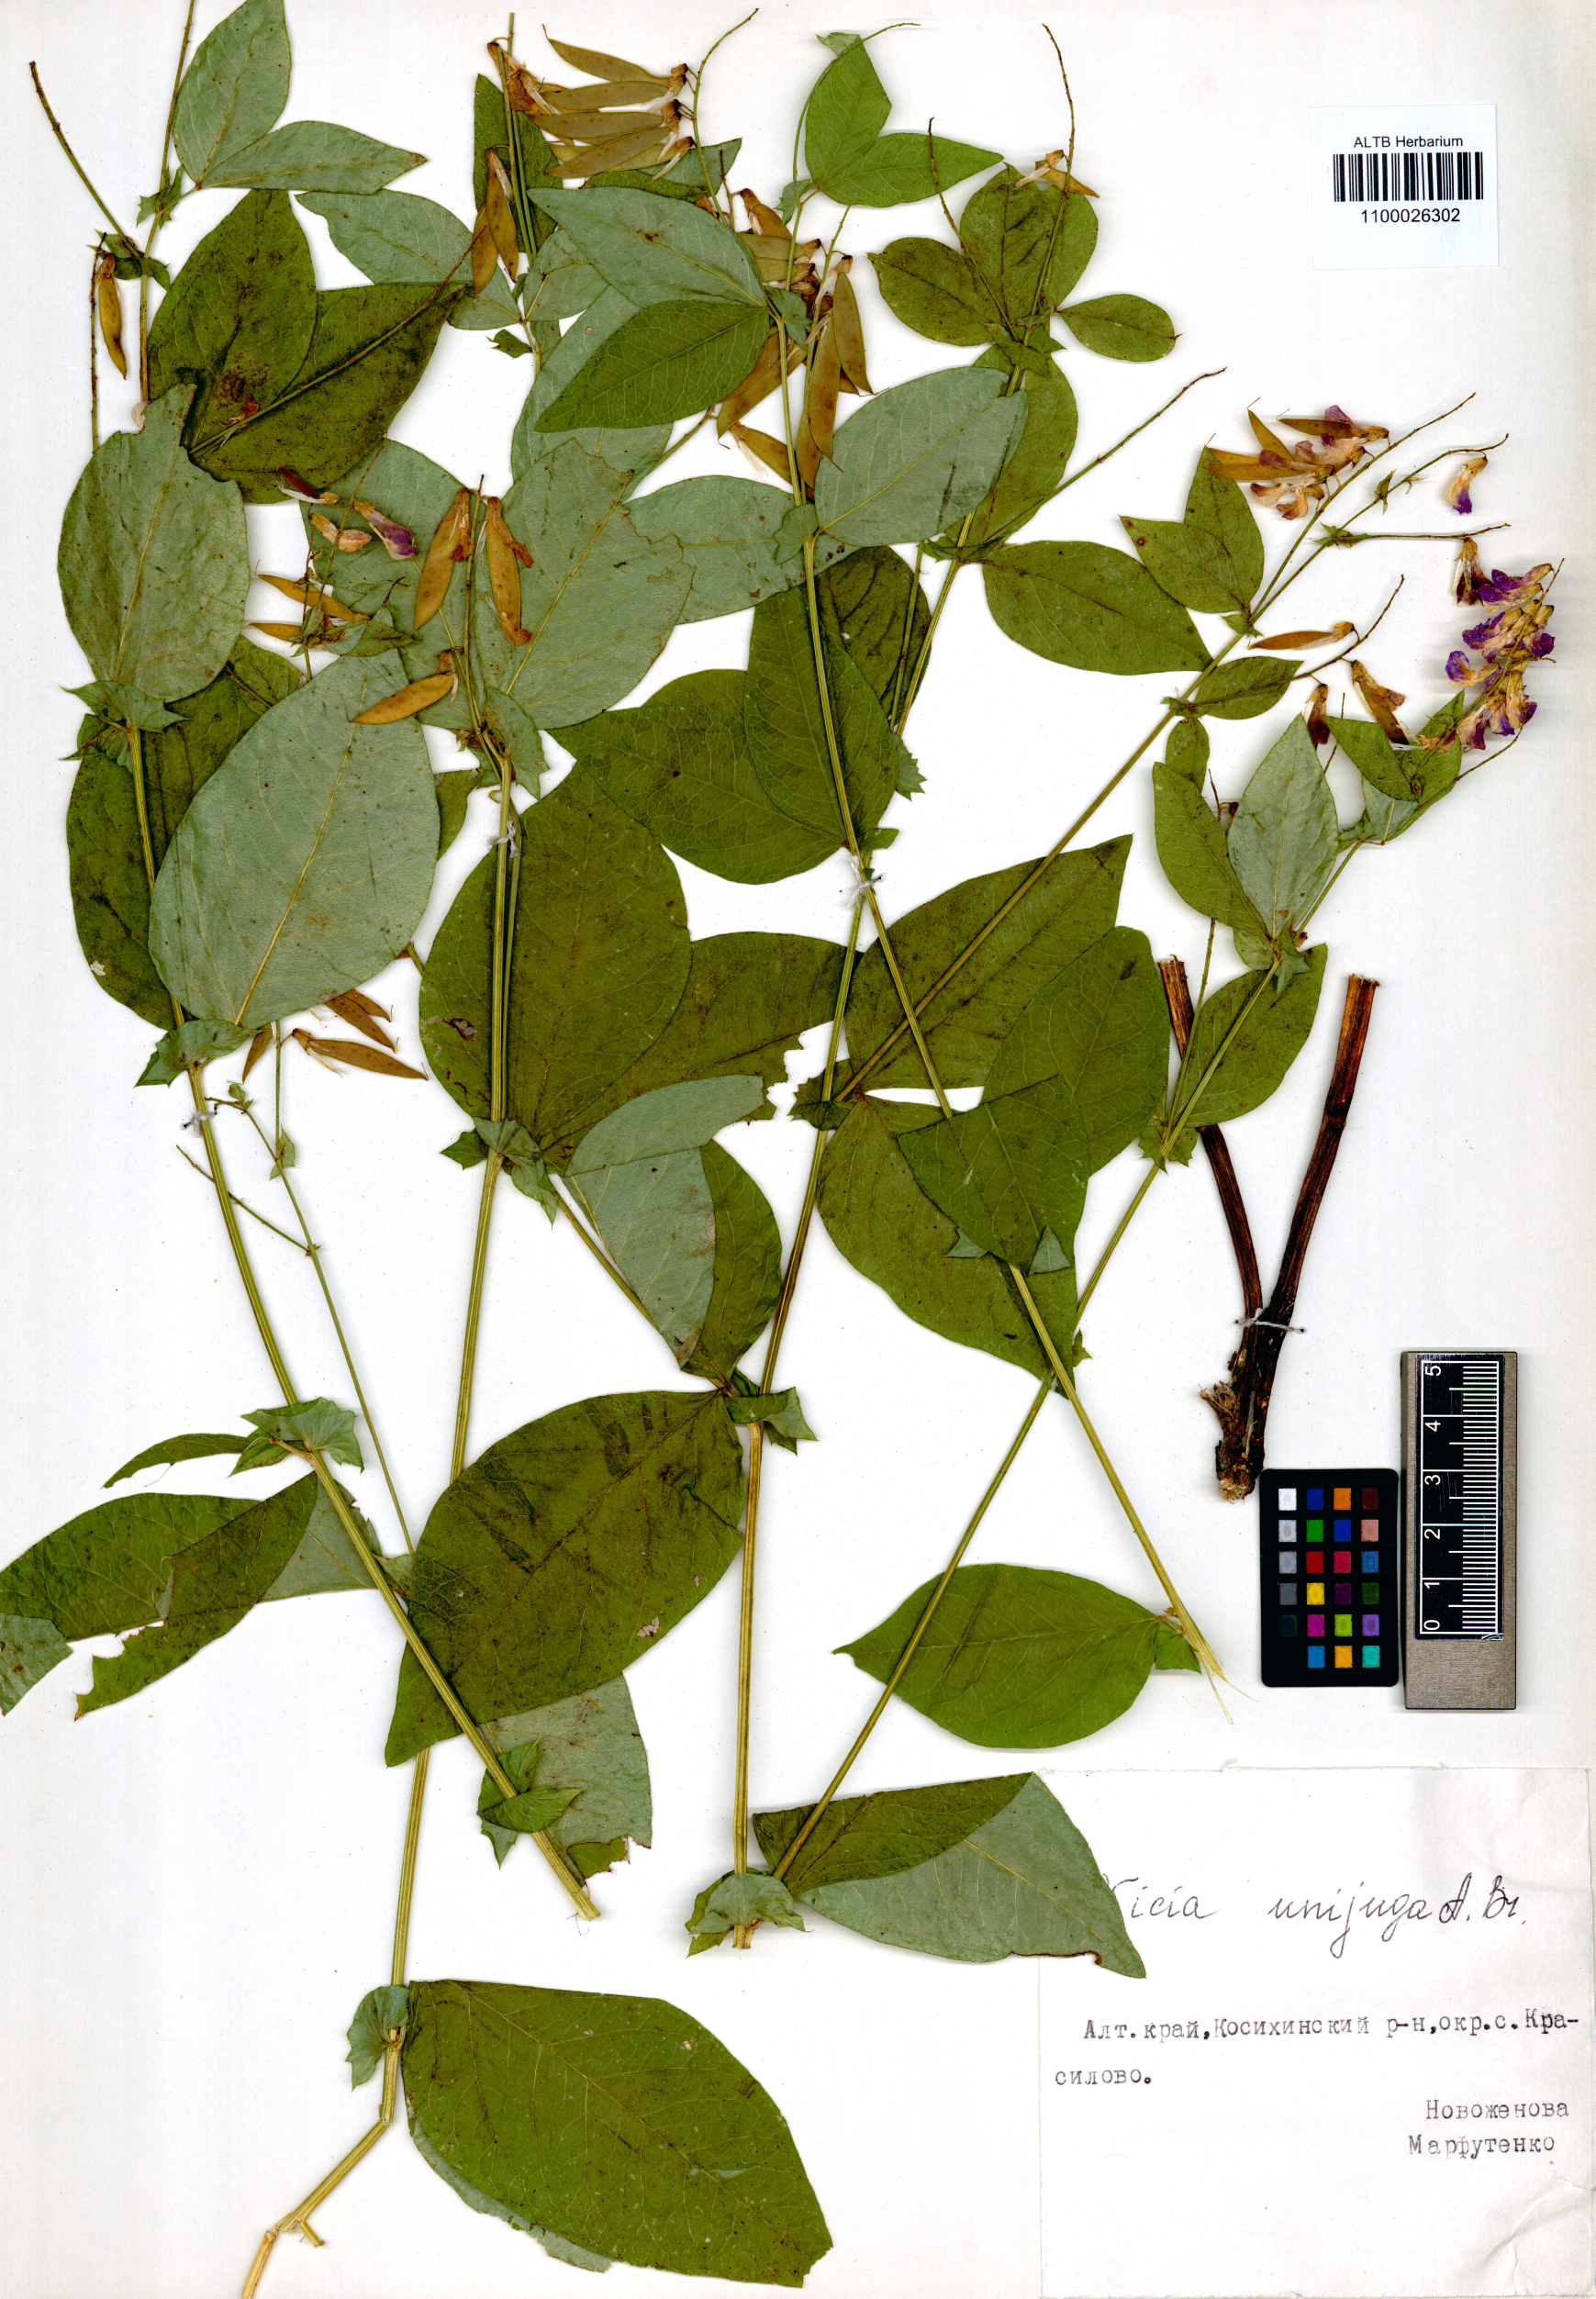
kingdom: Plantae
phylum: Tracheophyta
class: Magnoliopsida
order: Fabales
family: Fabaceae
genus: Vicia
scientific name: Vicia unijuga
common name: Two-leaf vetch
